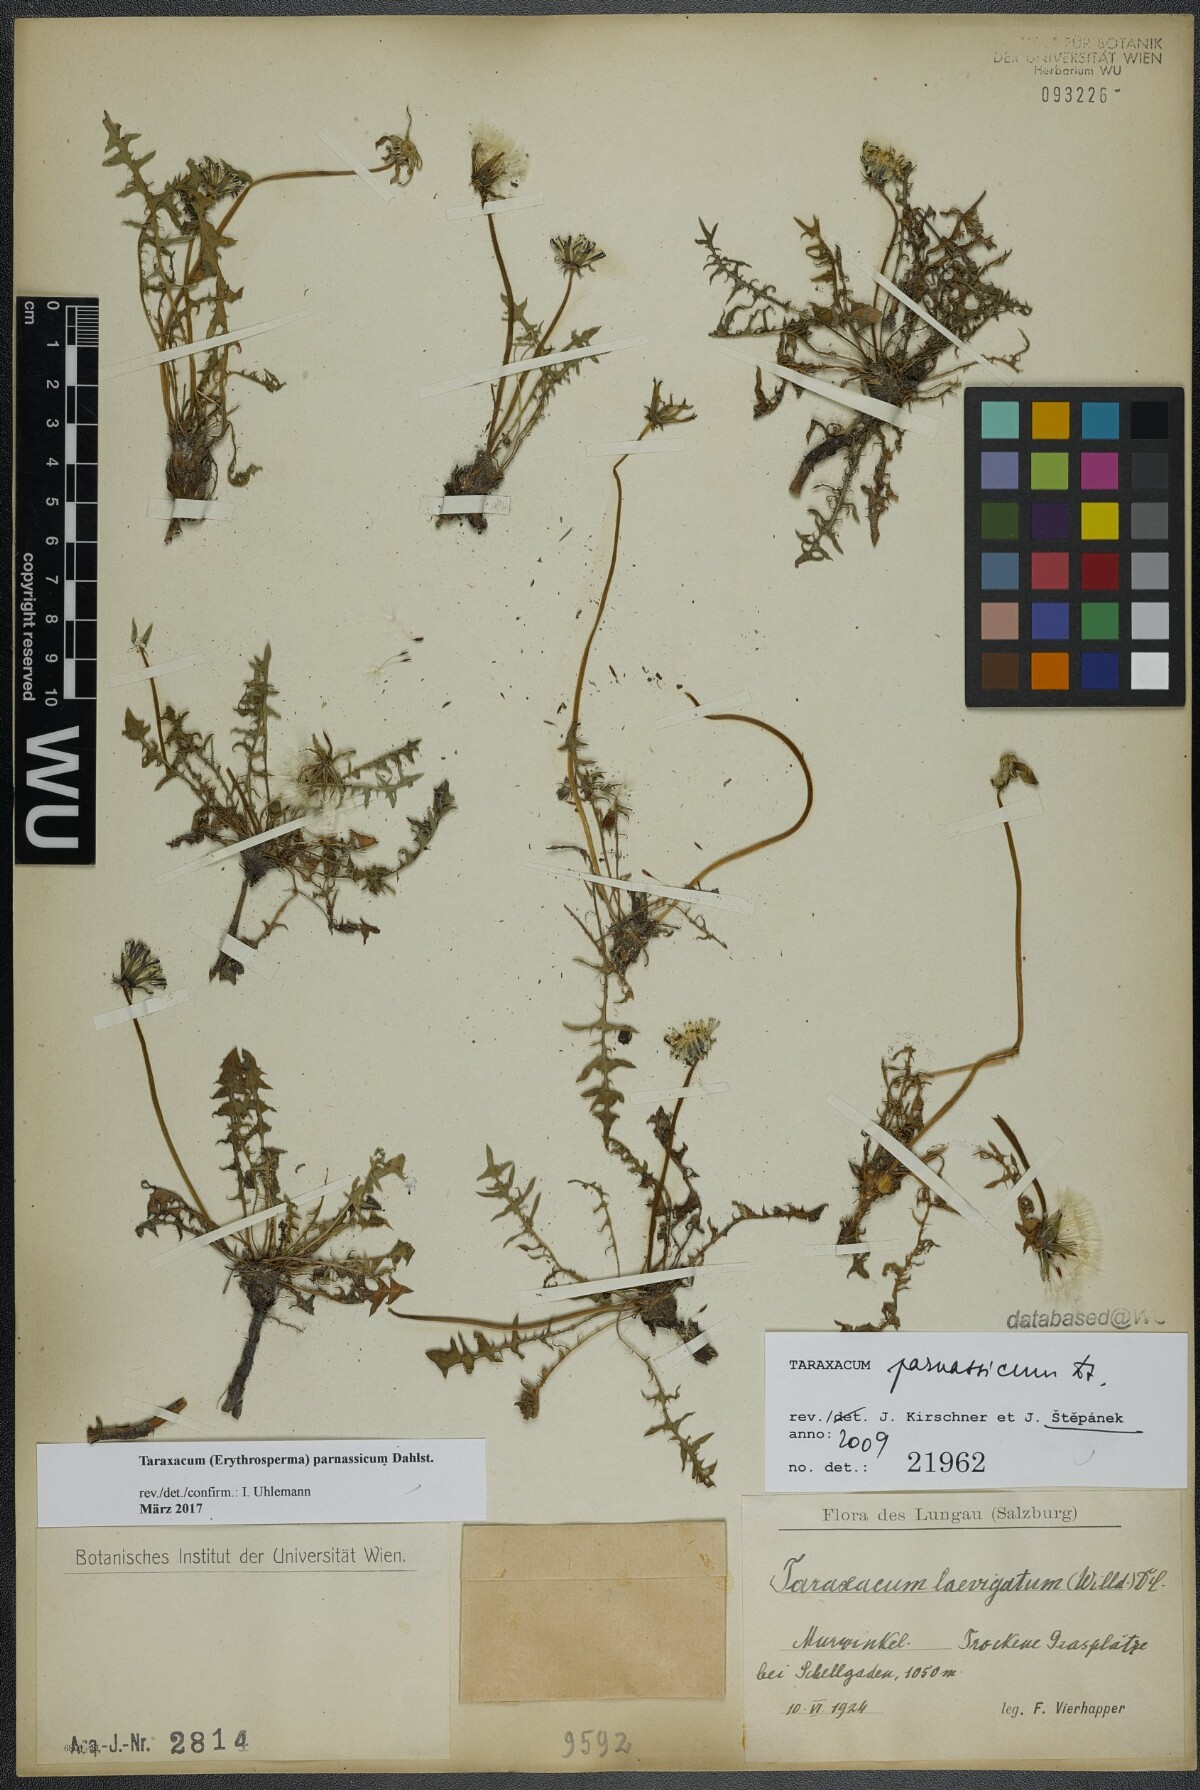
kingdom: Plantae
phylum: Tracheophyta
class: Magnoliopsida
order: Asterales
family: Asteraceae
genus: Taraxacum
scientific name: Taraxacum parnassicum
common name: Parnassus dandelion
